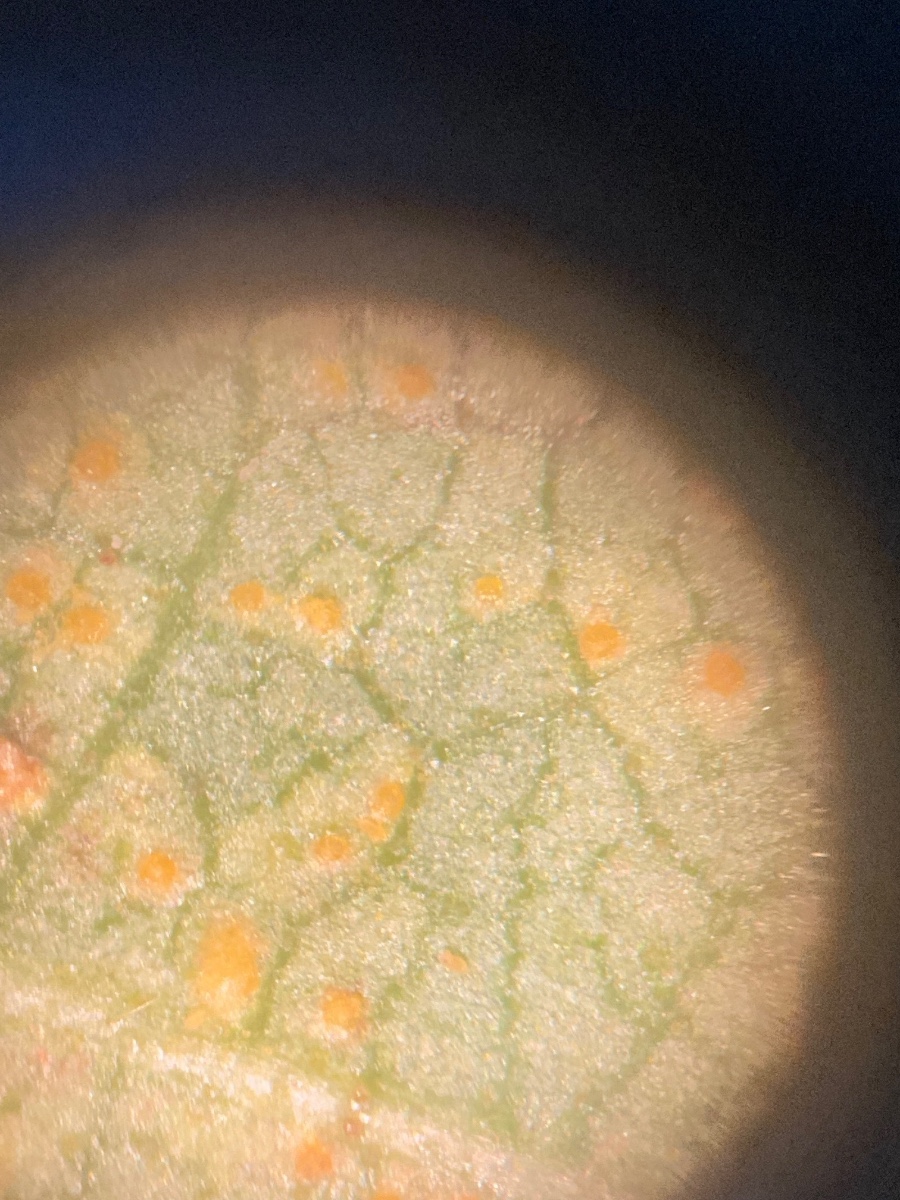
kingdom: Fungi
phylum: Basidiomycota
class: Pucciniomycetes
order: Pucciniales
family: Pucciniastraceae
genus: Melampsoridium
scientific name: Melampsoridium betulinum
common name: Birch rust
